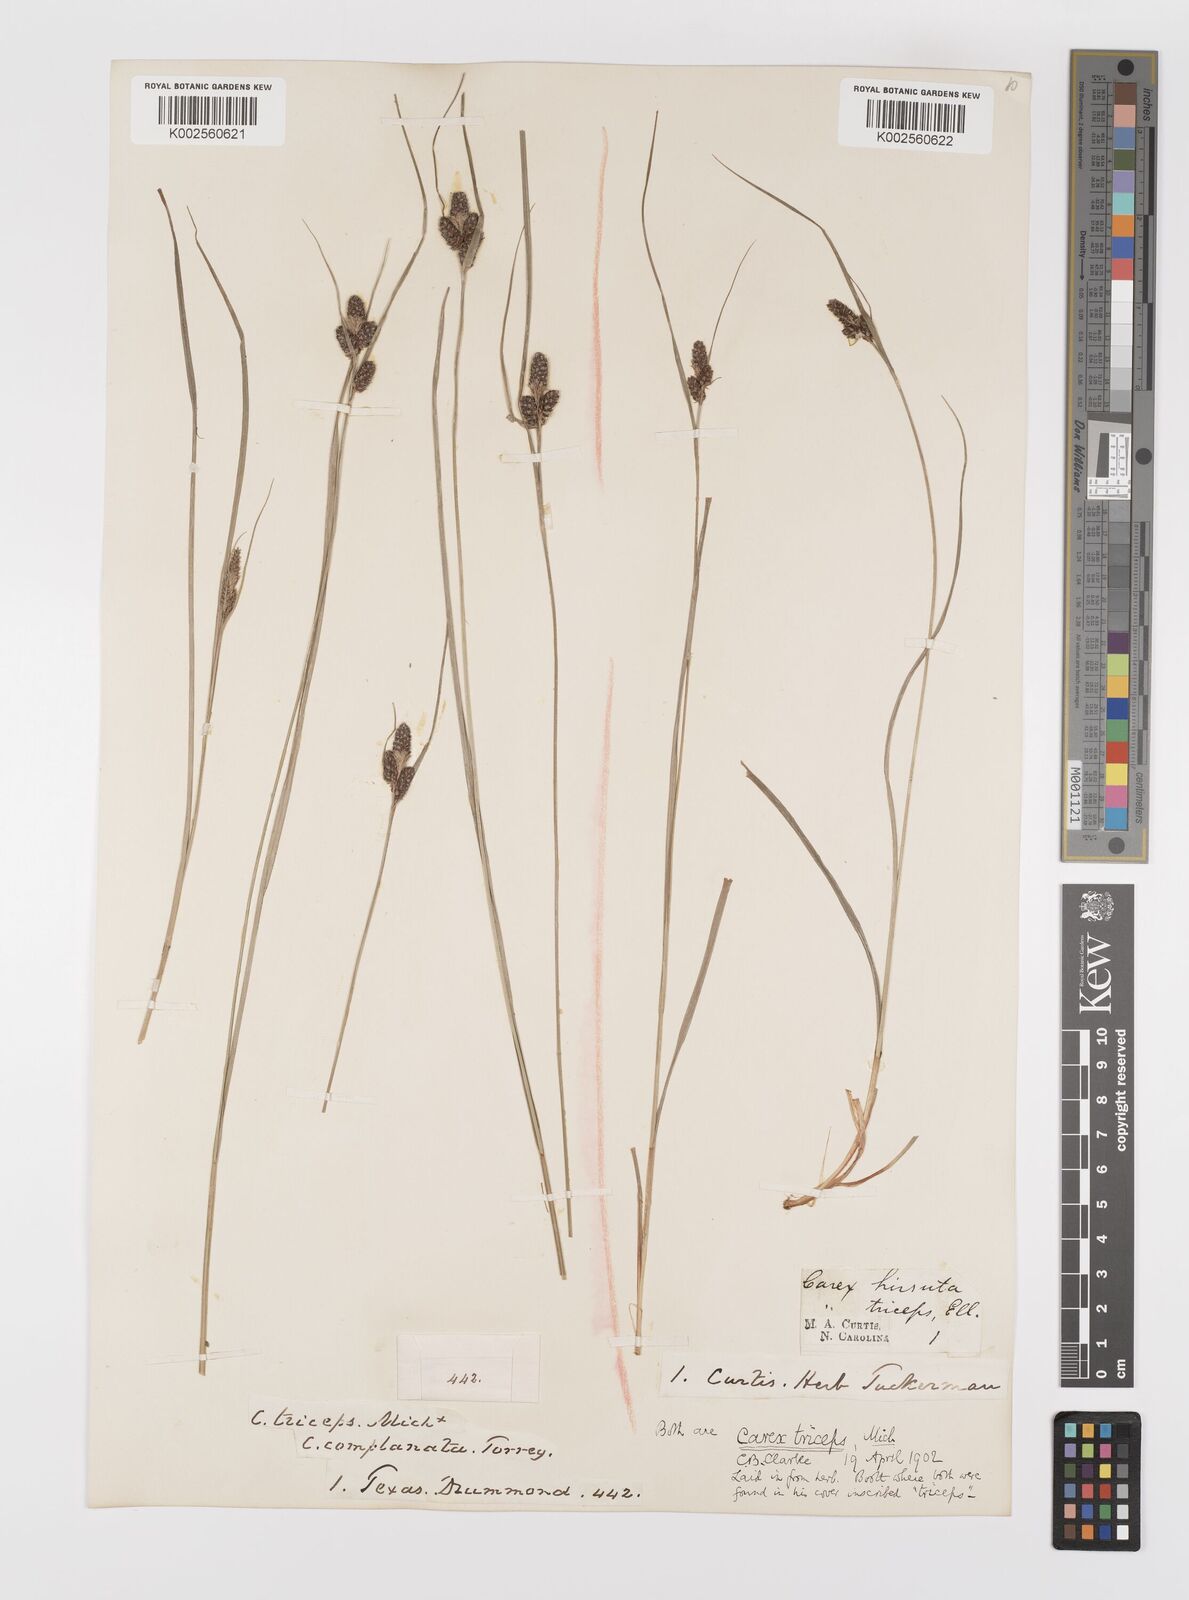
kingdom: Plantae
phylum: Tracheophyta
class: Liliopsida
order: Poales
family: Cyperaceae
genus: Carex
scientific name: Carex complanata
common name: Hirsute sedge
